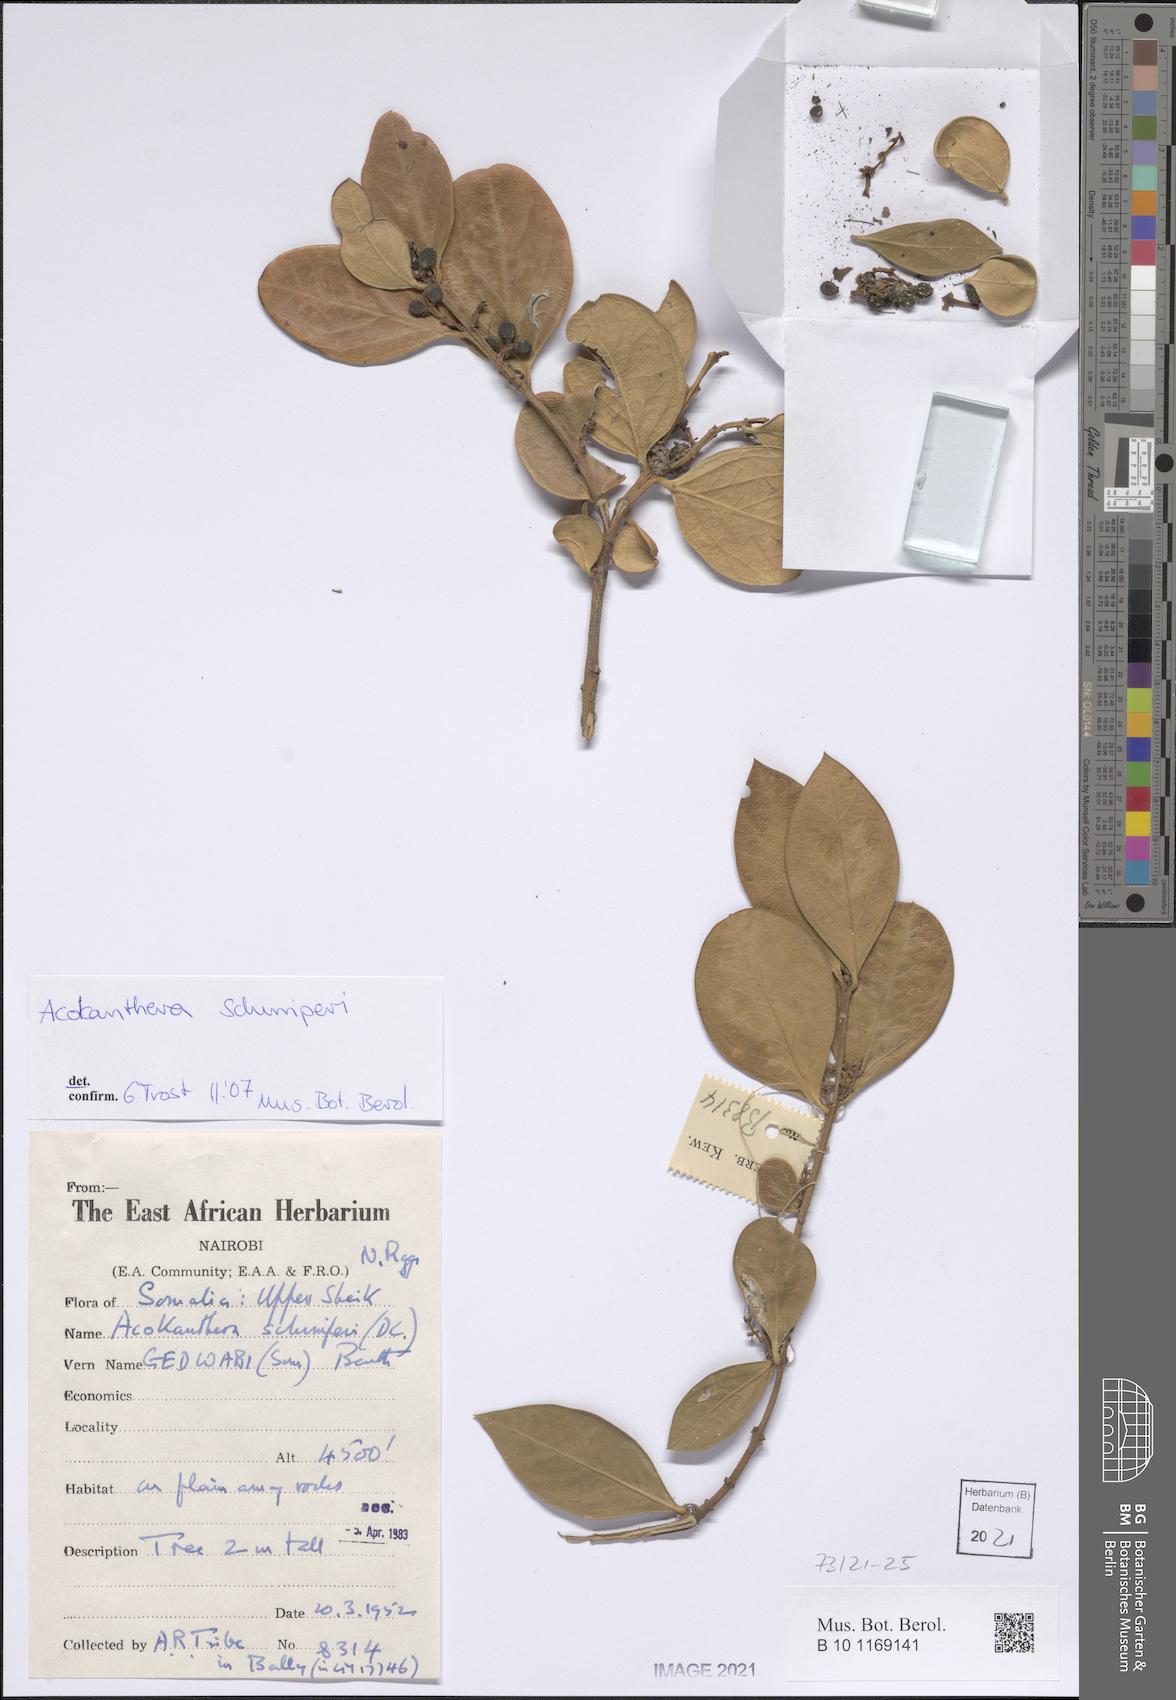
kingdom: Plantae
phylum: Tracheophyta
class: Magnoliopsida
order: Gentianales
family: Apocynaceae
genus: Acokanthera
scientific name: Acokanthera schimperi
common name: Arrow-poison-tree
